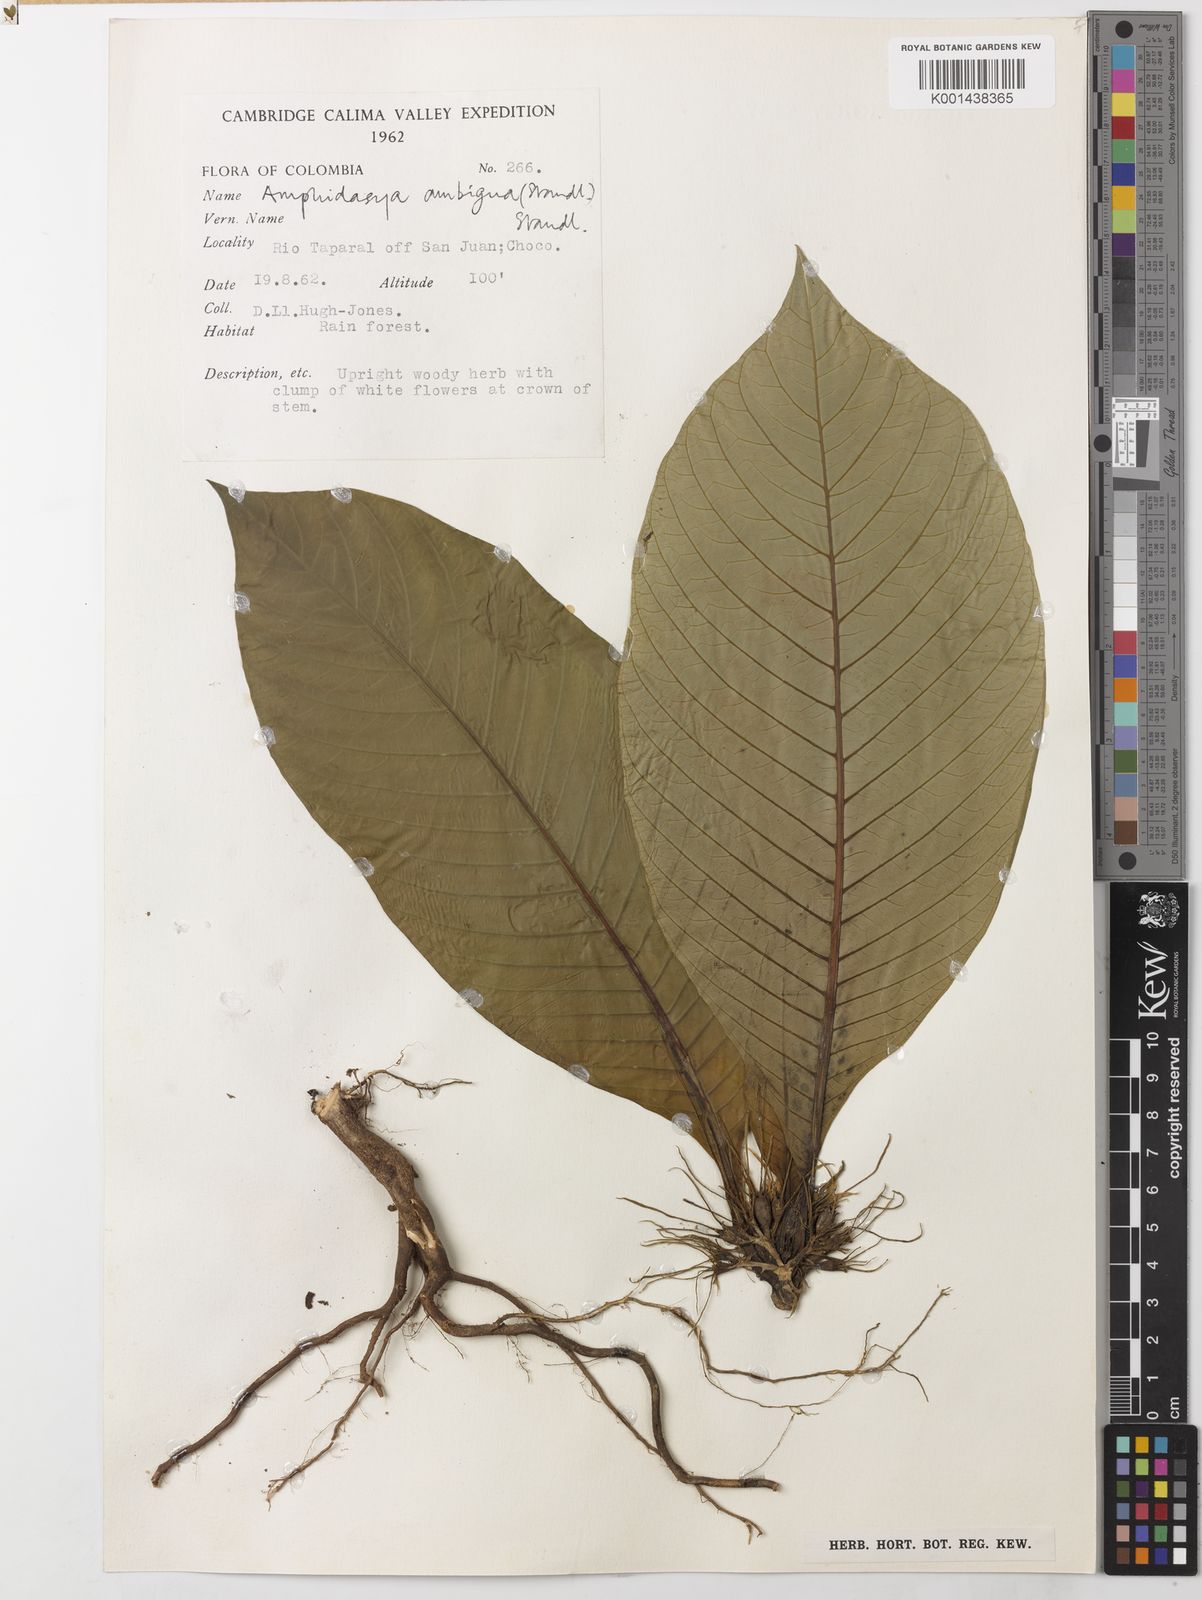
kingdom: Plantae
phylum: Tracheophyta
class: Magnoliopsida
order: Gentianales
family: Rubiaceae
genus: Amphidasya
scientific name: Amphidasya ambigua
